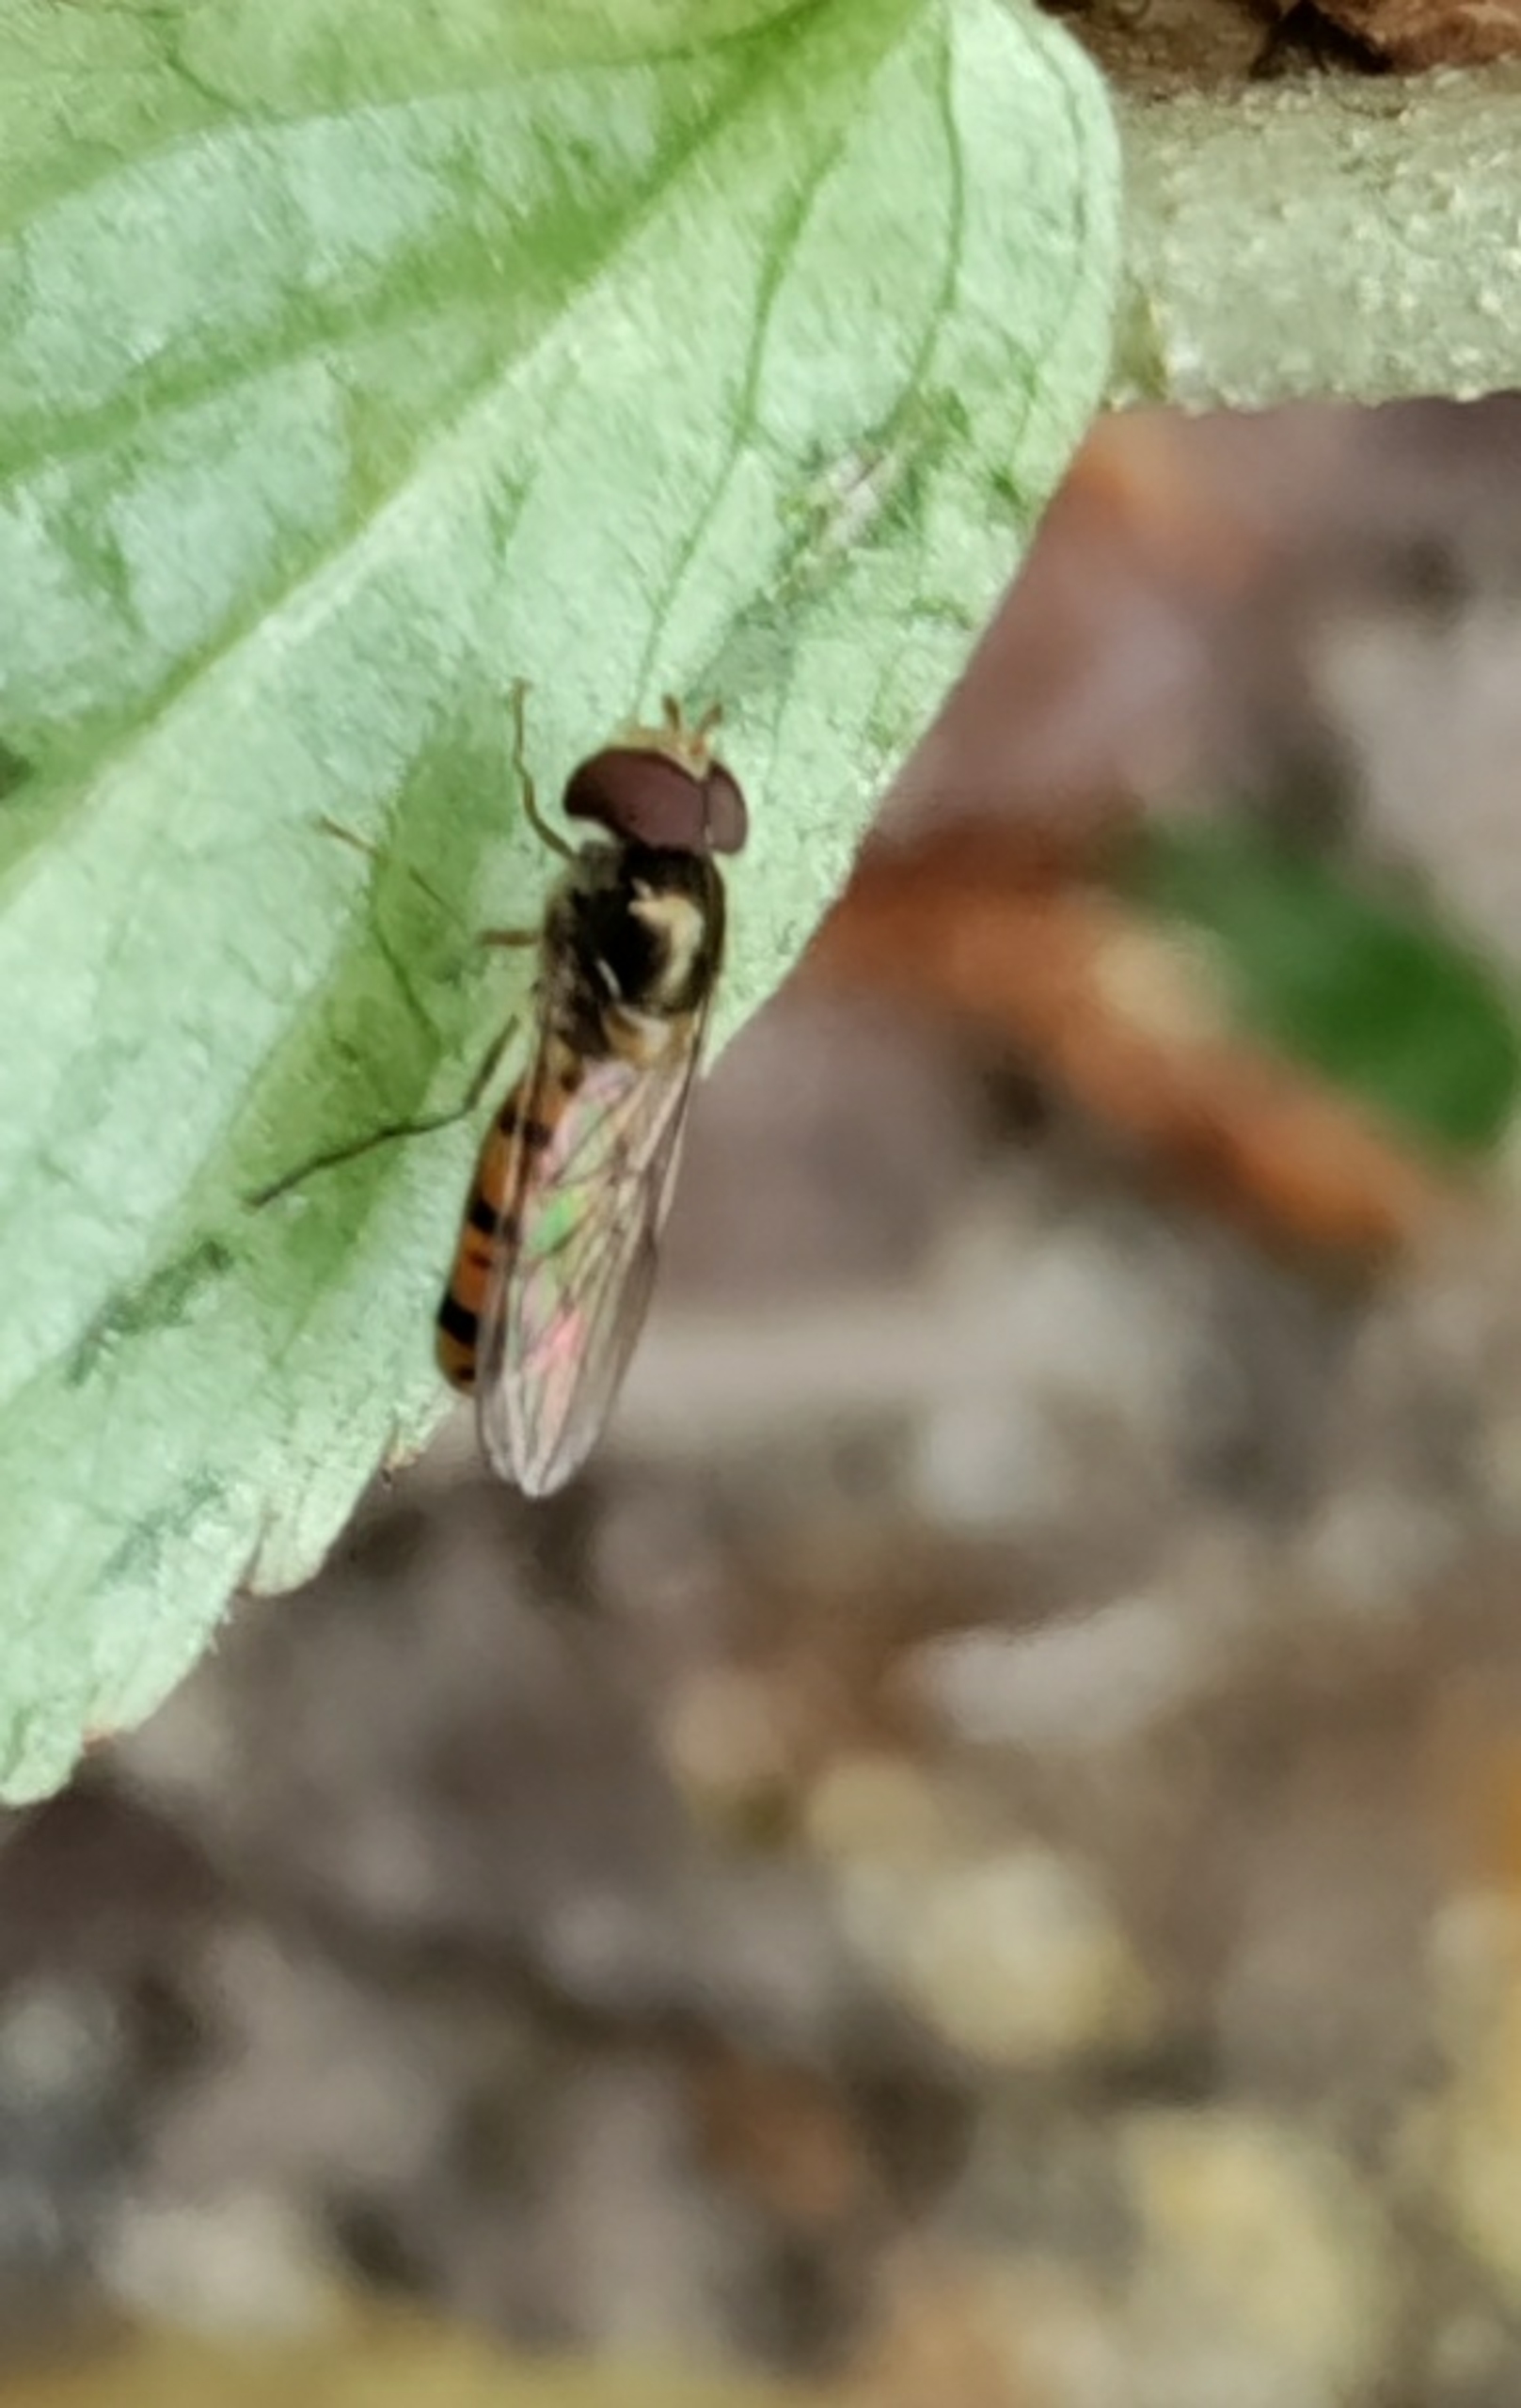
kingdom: Animalia
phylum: Arthropoda
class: Insecta
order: Diptera
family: Syrphidae
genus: Episyrphus
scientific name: Episyrphus balteatus
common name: Dobbeltbåndet svirreflue
